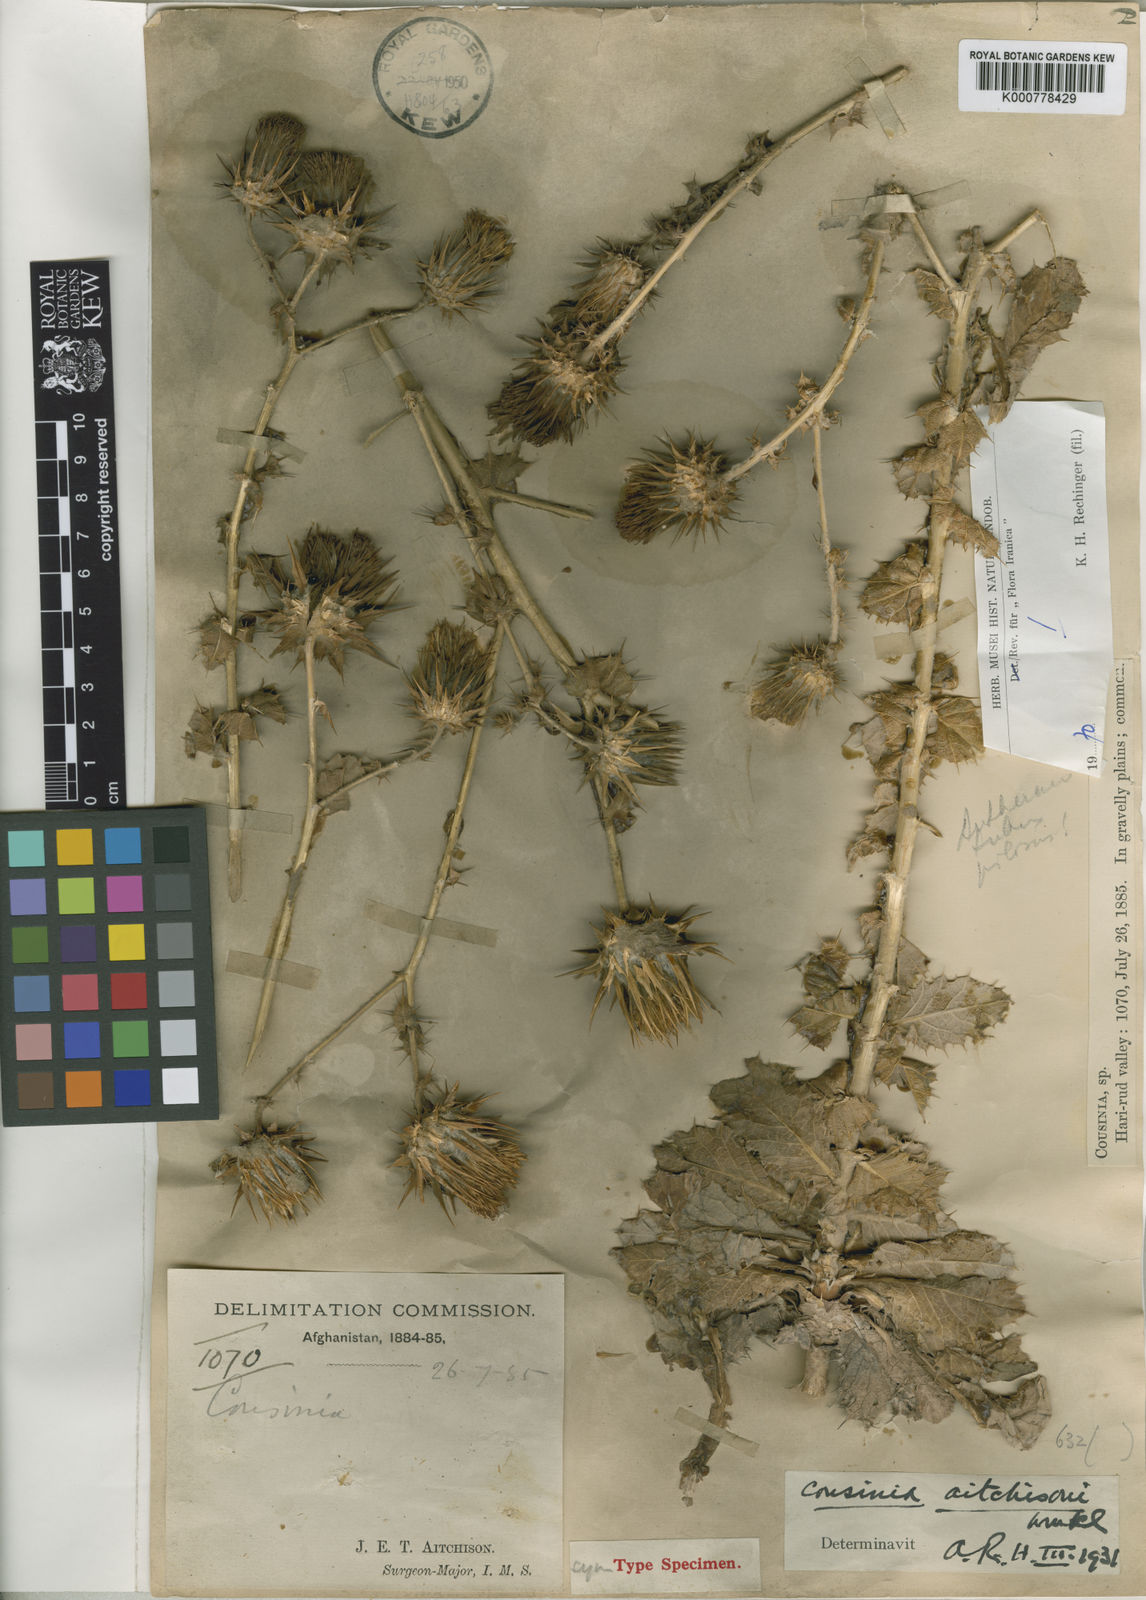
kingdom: Plantae
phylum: Tracheophyta
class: Magnoliopsida
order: Asterales
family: Asteraceae
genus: Cousinia
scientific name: Cousinia aitchisonii
